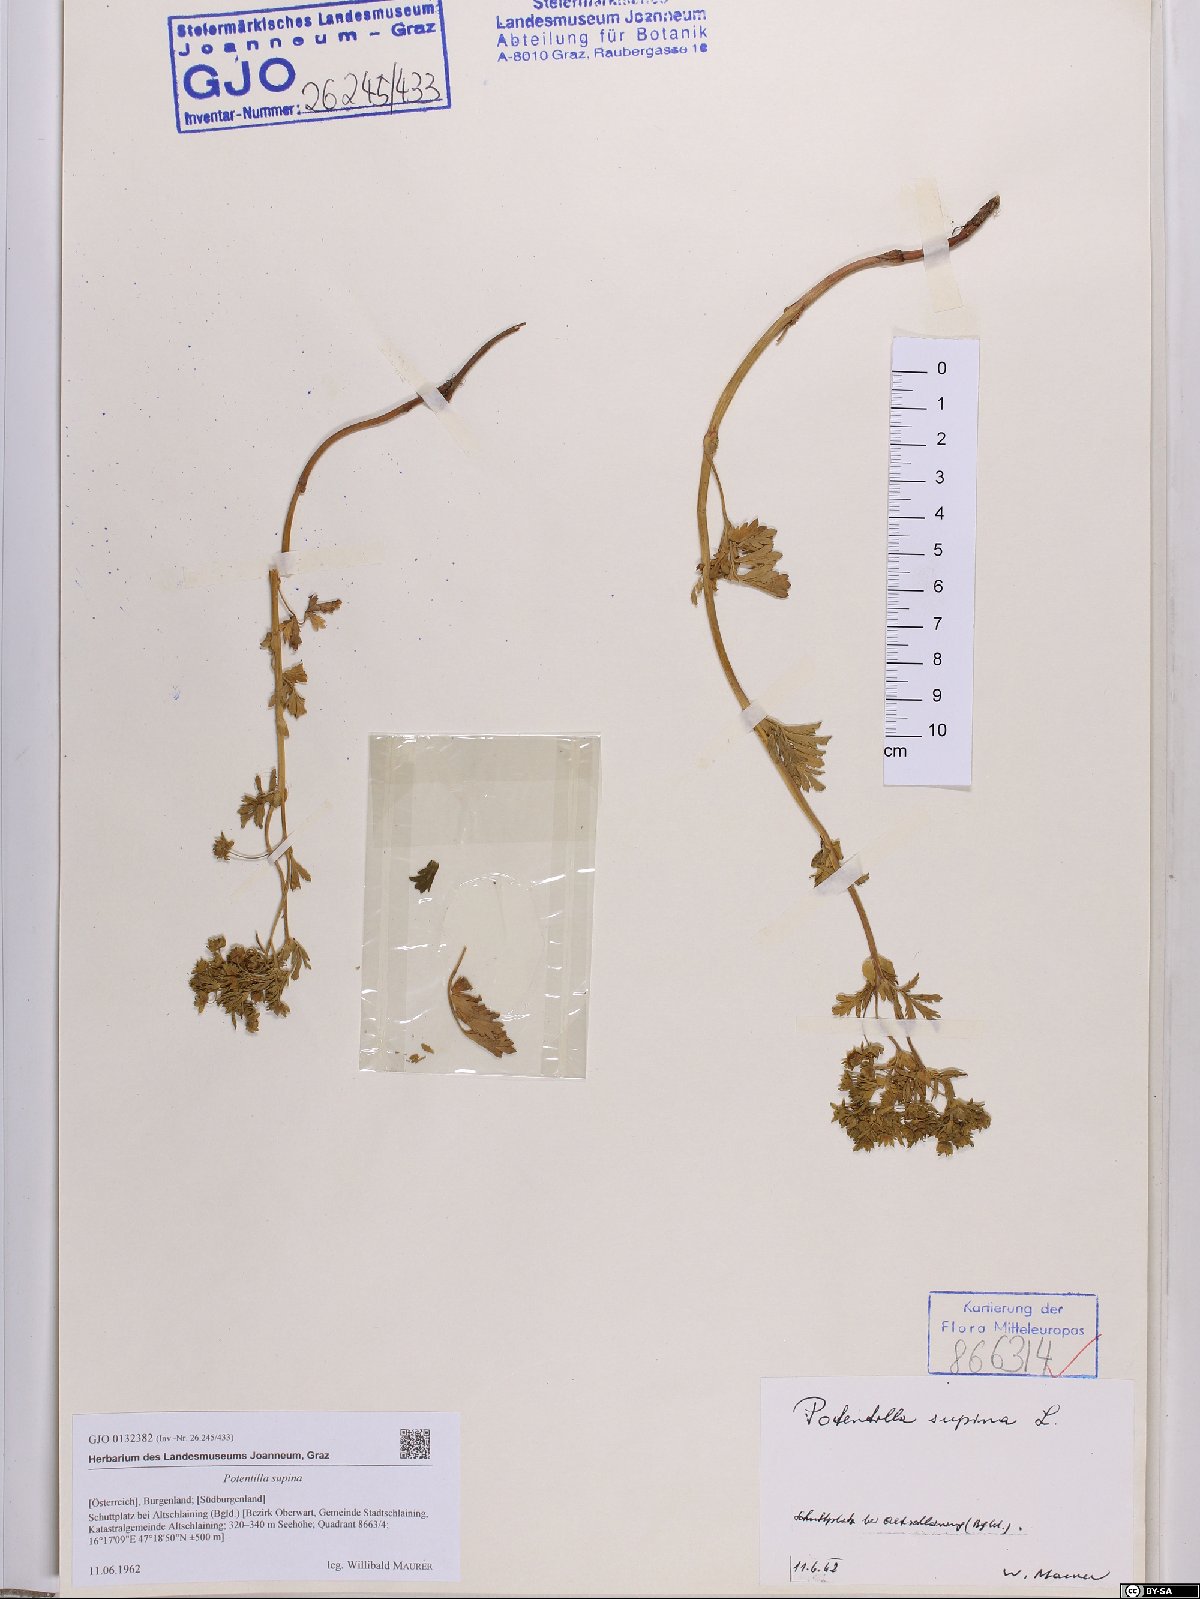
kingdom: Plantae
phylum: Tracheophyta
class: Magnoliopsida
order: Rosales
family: Rosaceae
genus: Potentilla
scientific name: Potentilla supina
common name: Prostrate cinquefoil
